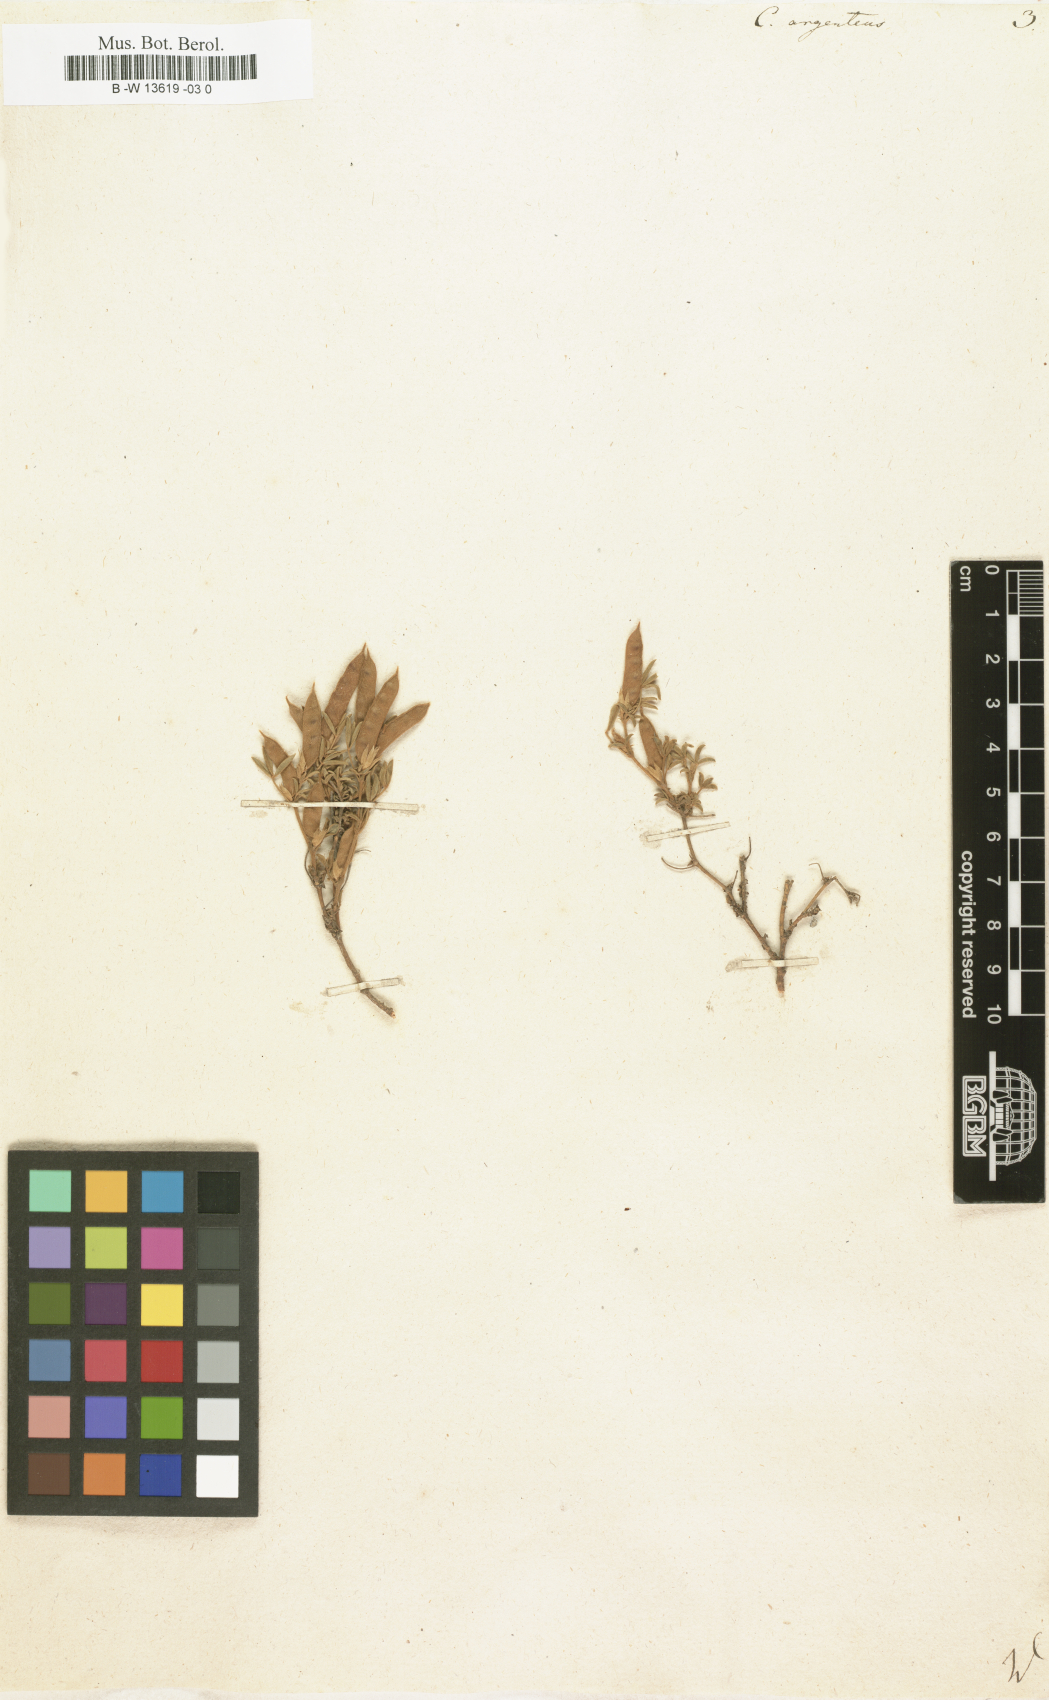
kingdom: Plantae
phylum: Tracheophyta
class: Magnoliopsida
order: Fabales
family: Fabaceae
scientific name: Fabaceae
